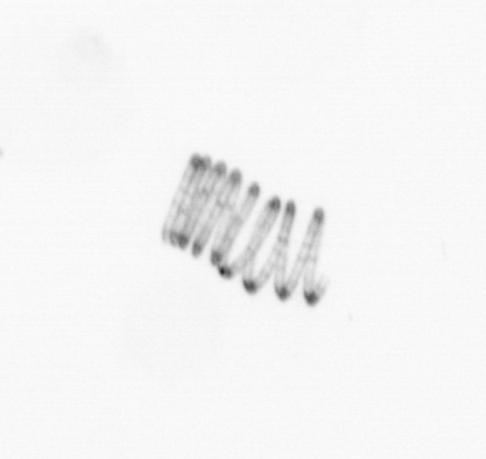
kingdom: Chromista
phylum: Ochrophyta
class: Bacillariophyceae
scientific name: Bacillariophyceae
